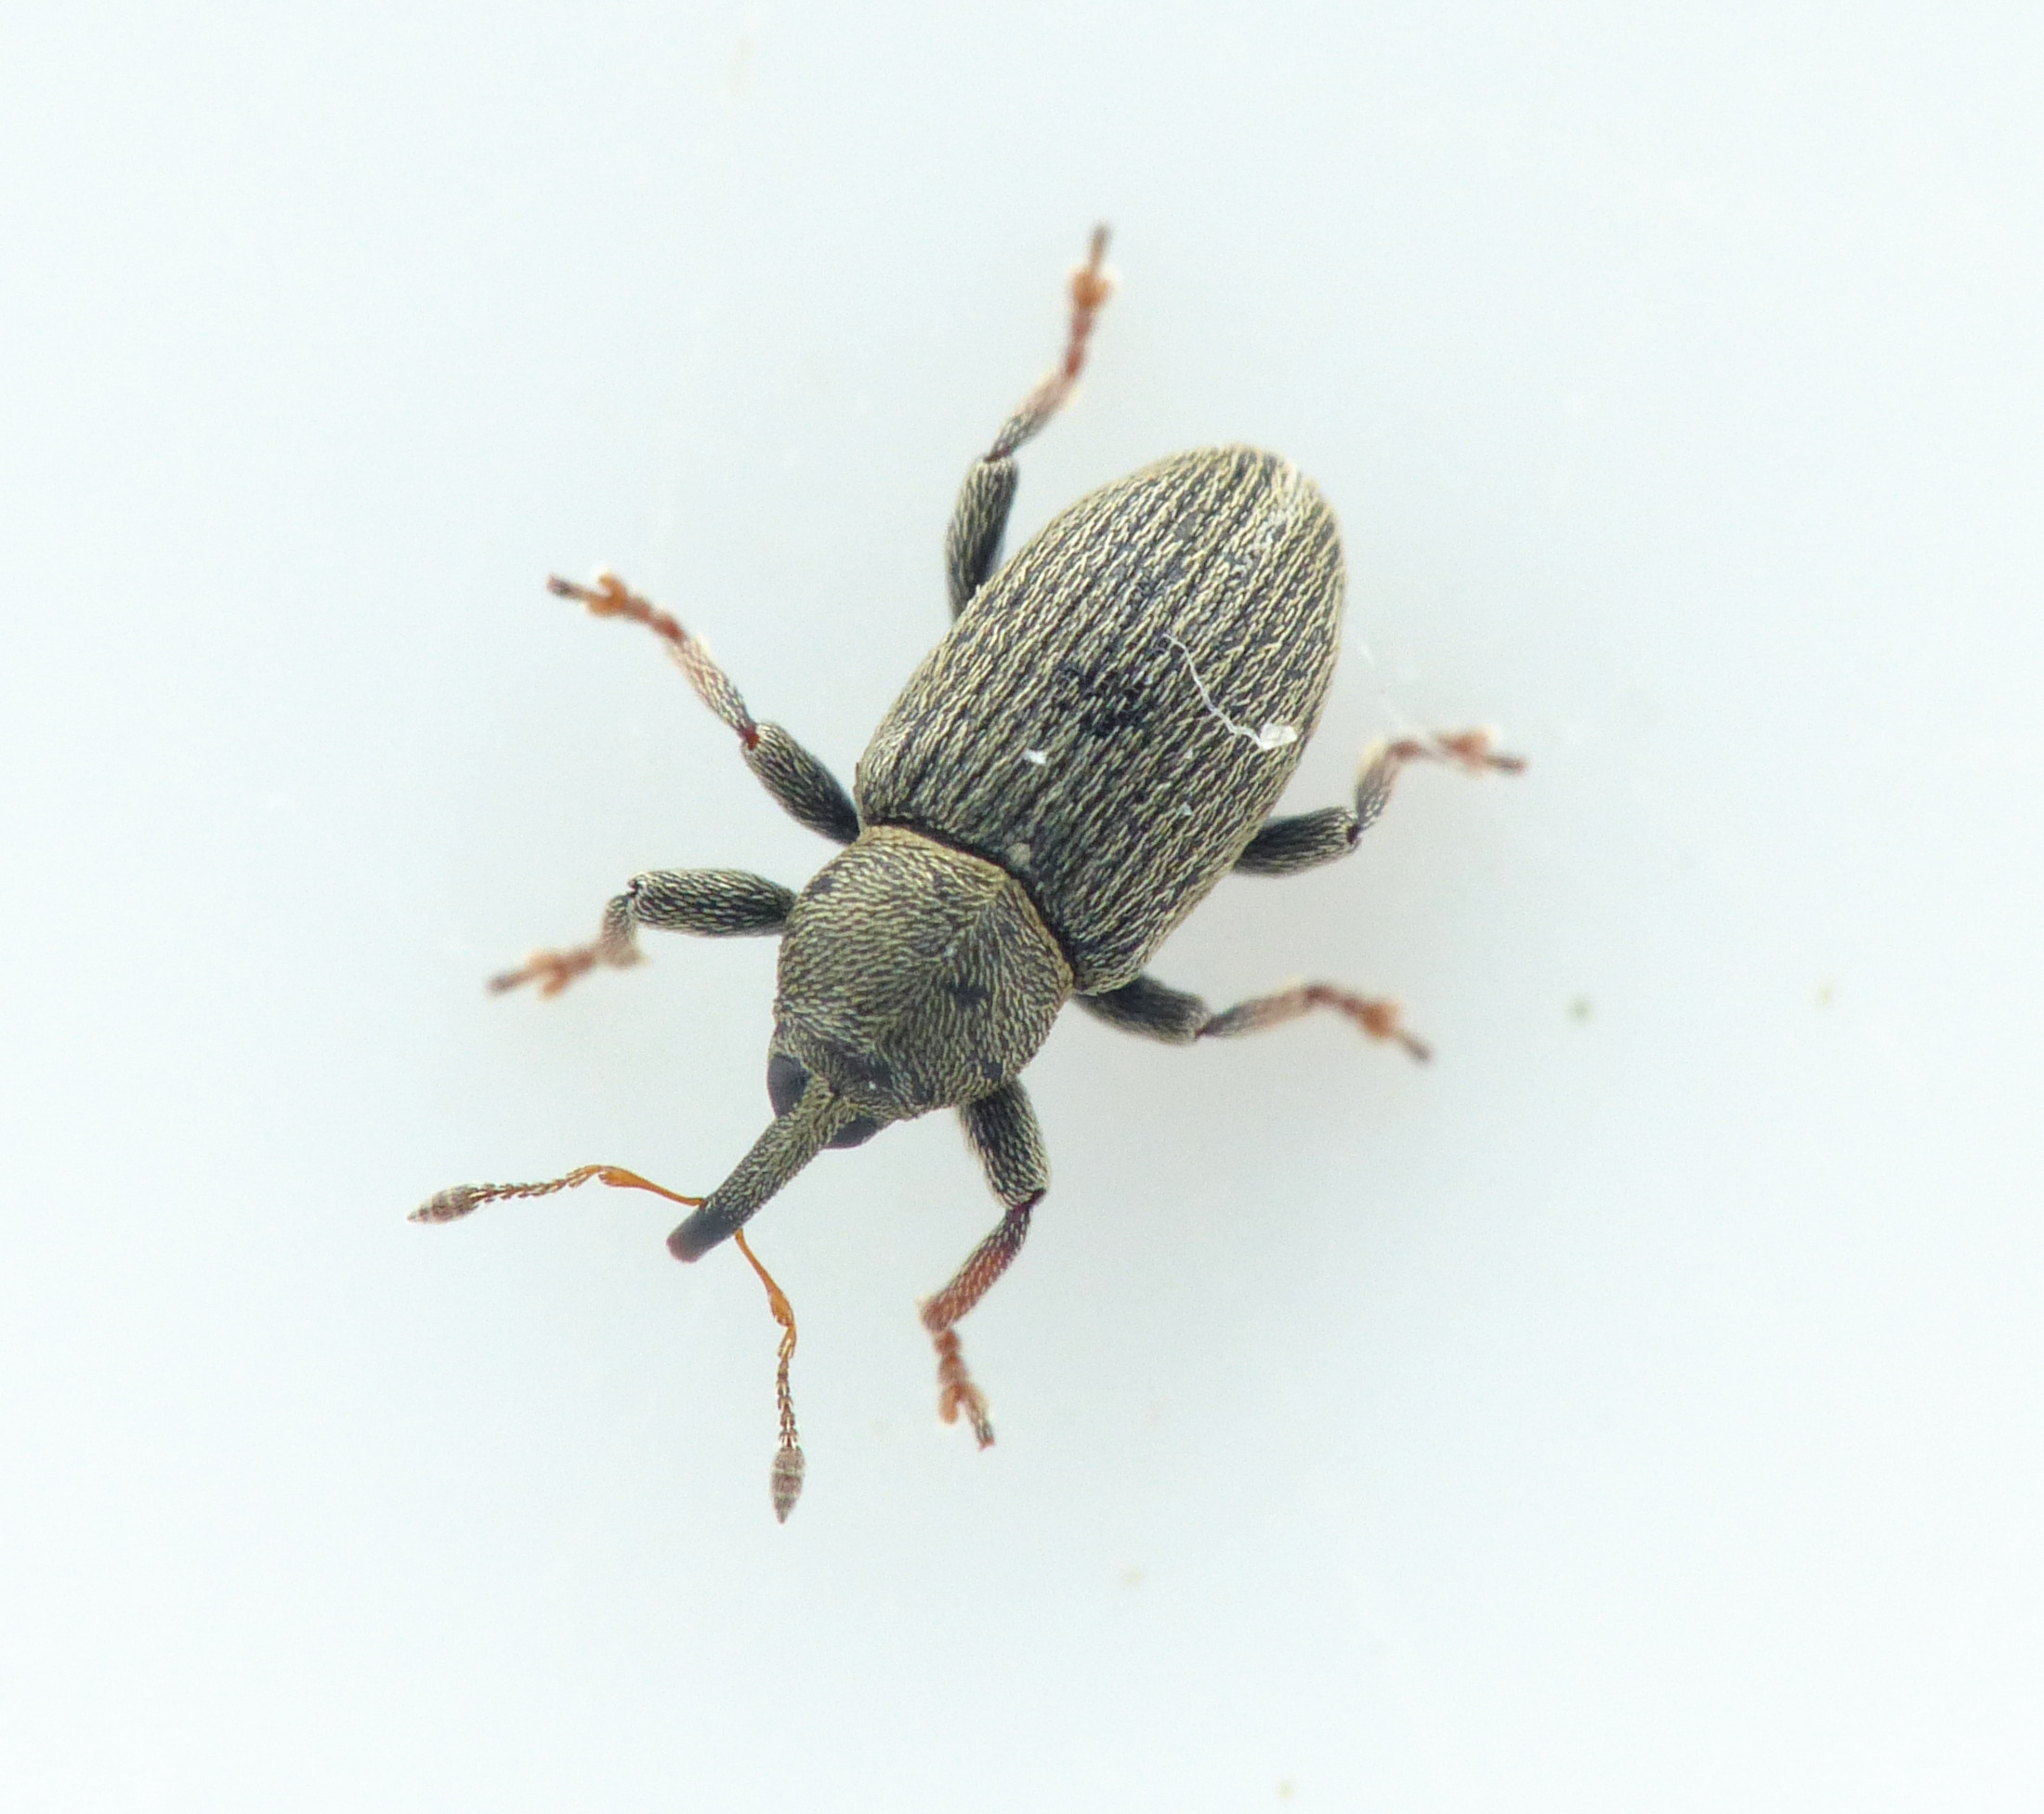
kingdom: Animalia
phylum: Arthropoda
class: Insecta
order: Coleoptera
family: Curculionidae
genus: Tychius
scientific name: Tychius picirostris
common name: Kløverfrøgnaver
